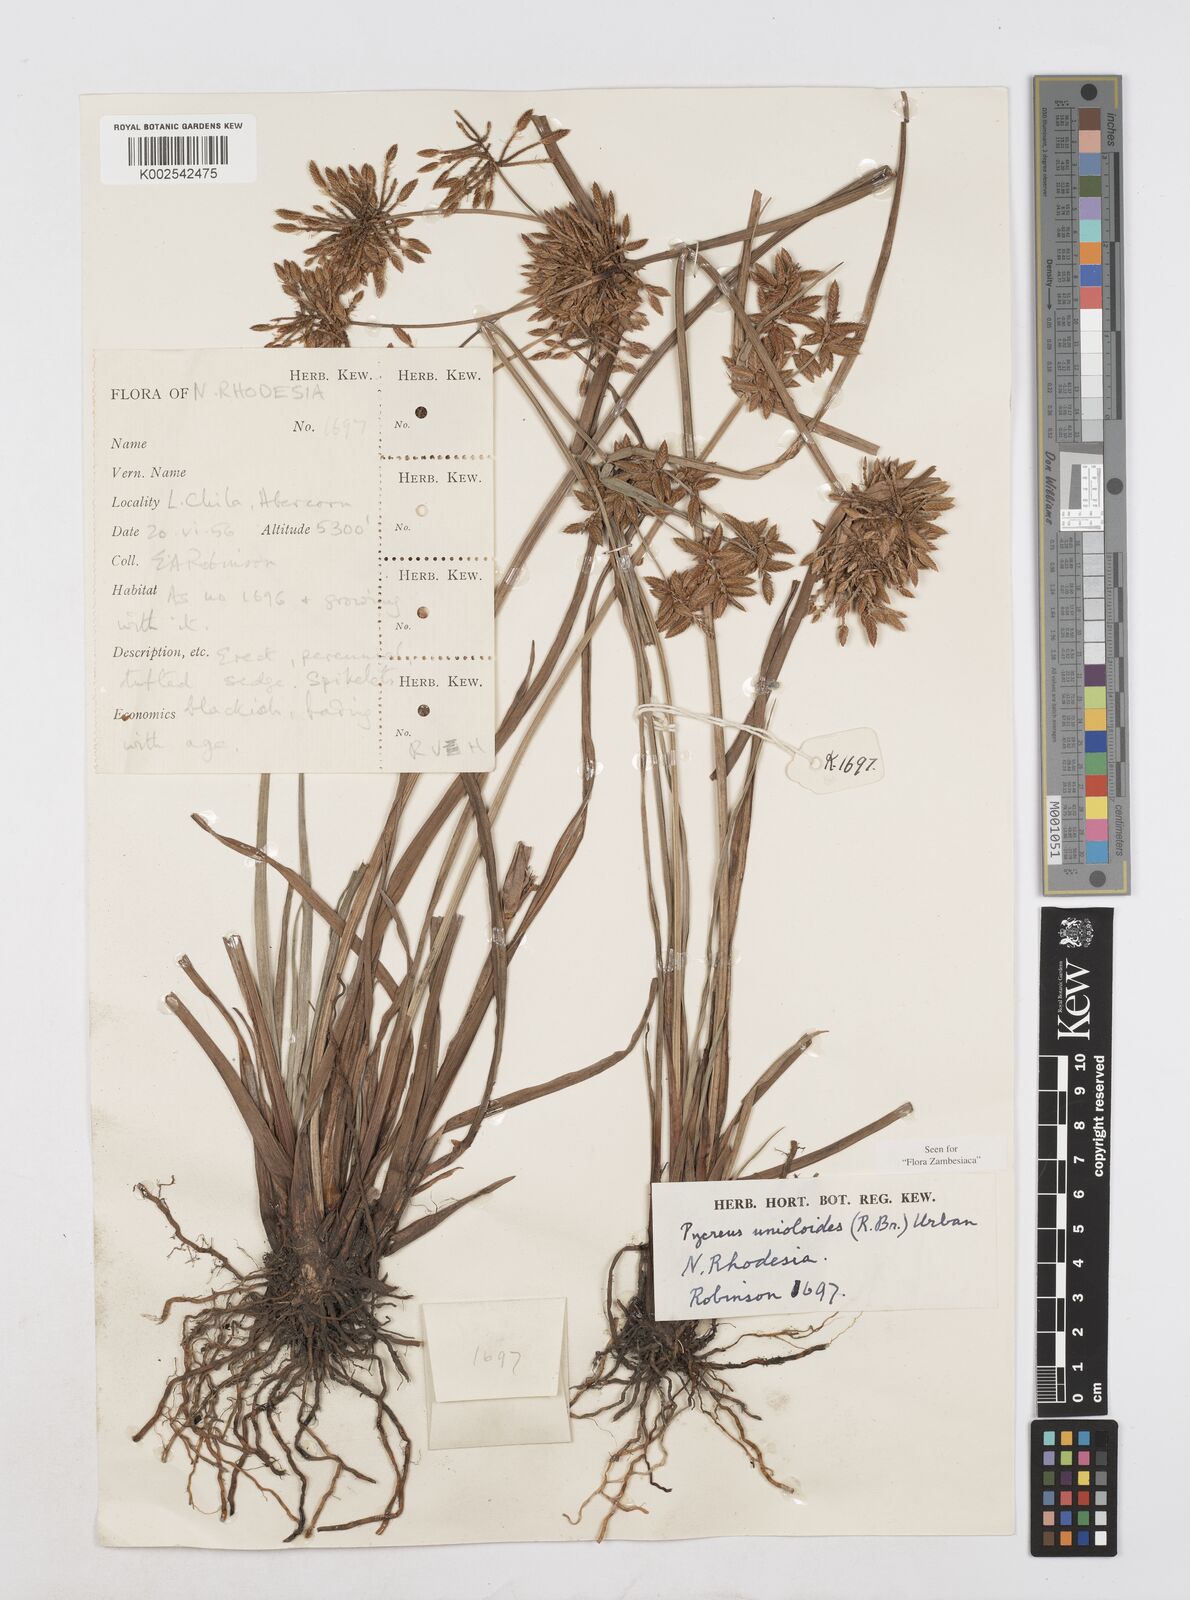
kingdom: Plantae
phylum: Tracheophyta
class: Liliopsida
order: Poales
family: Cyperaceae
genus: Cyperus
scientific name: Cyperus unioloides
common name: Uniola flatsedge
